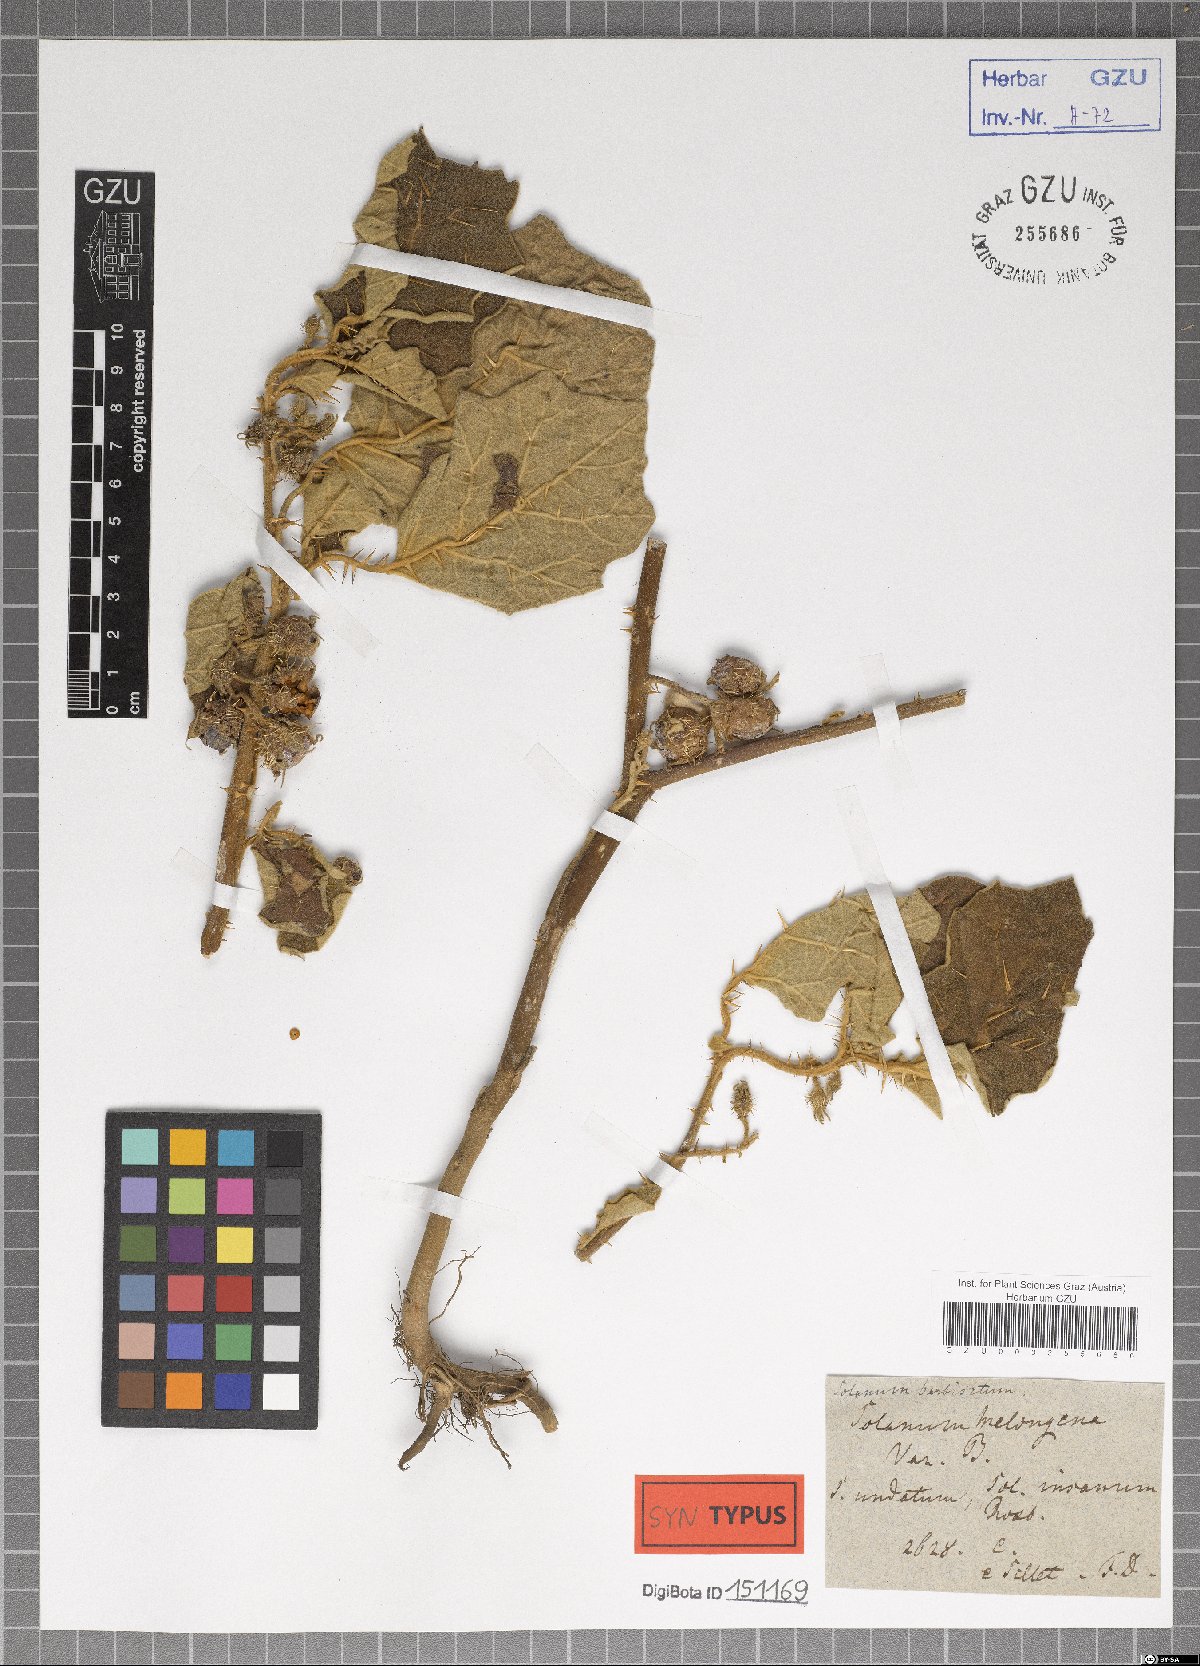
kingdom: Plantae
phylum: Tracheophyta
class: Magnoliopsida
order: Solanales
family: Solanaceae
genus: Solanum
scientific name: Solanum barbisetum
